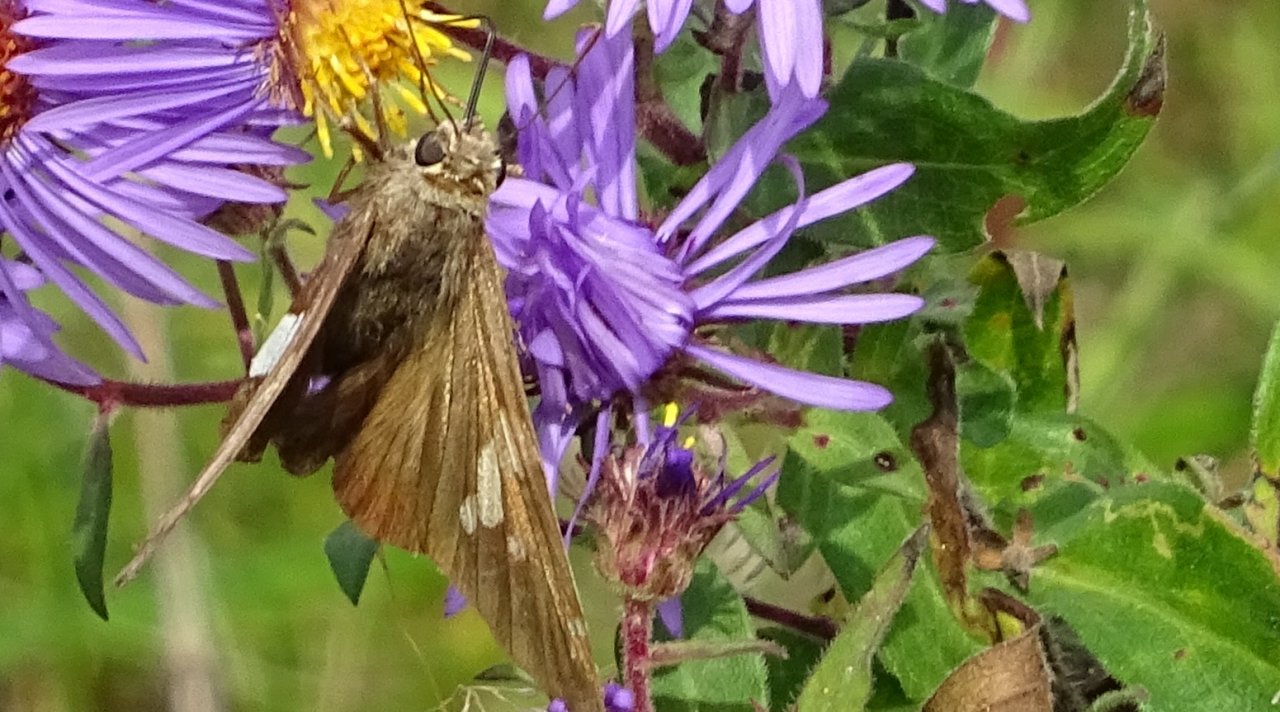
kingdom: Animalia
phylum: Arthropoda
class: Insecta
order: Lepidoptera
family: Hesperiidae
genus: Epargyreus
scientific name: Epargyreus clarus
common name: Silver-spotted Skipper
